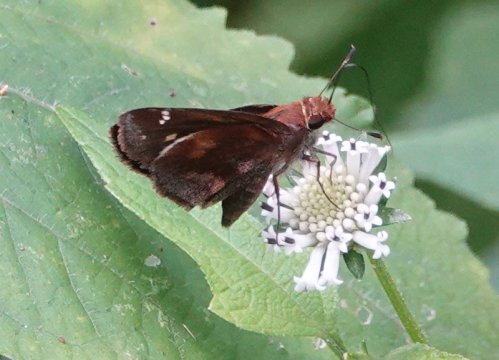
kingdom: Animalia
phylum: Arthropoda
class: Insecta
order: Lepidoptera
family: Hesperiidae
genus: Lon
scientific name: Lon zabulon
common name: Zabulon Skipper
